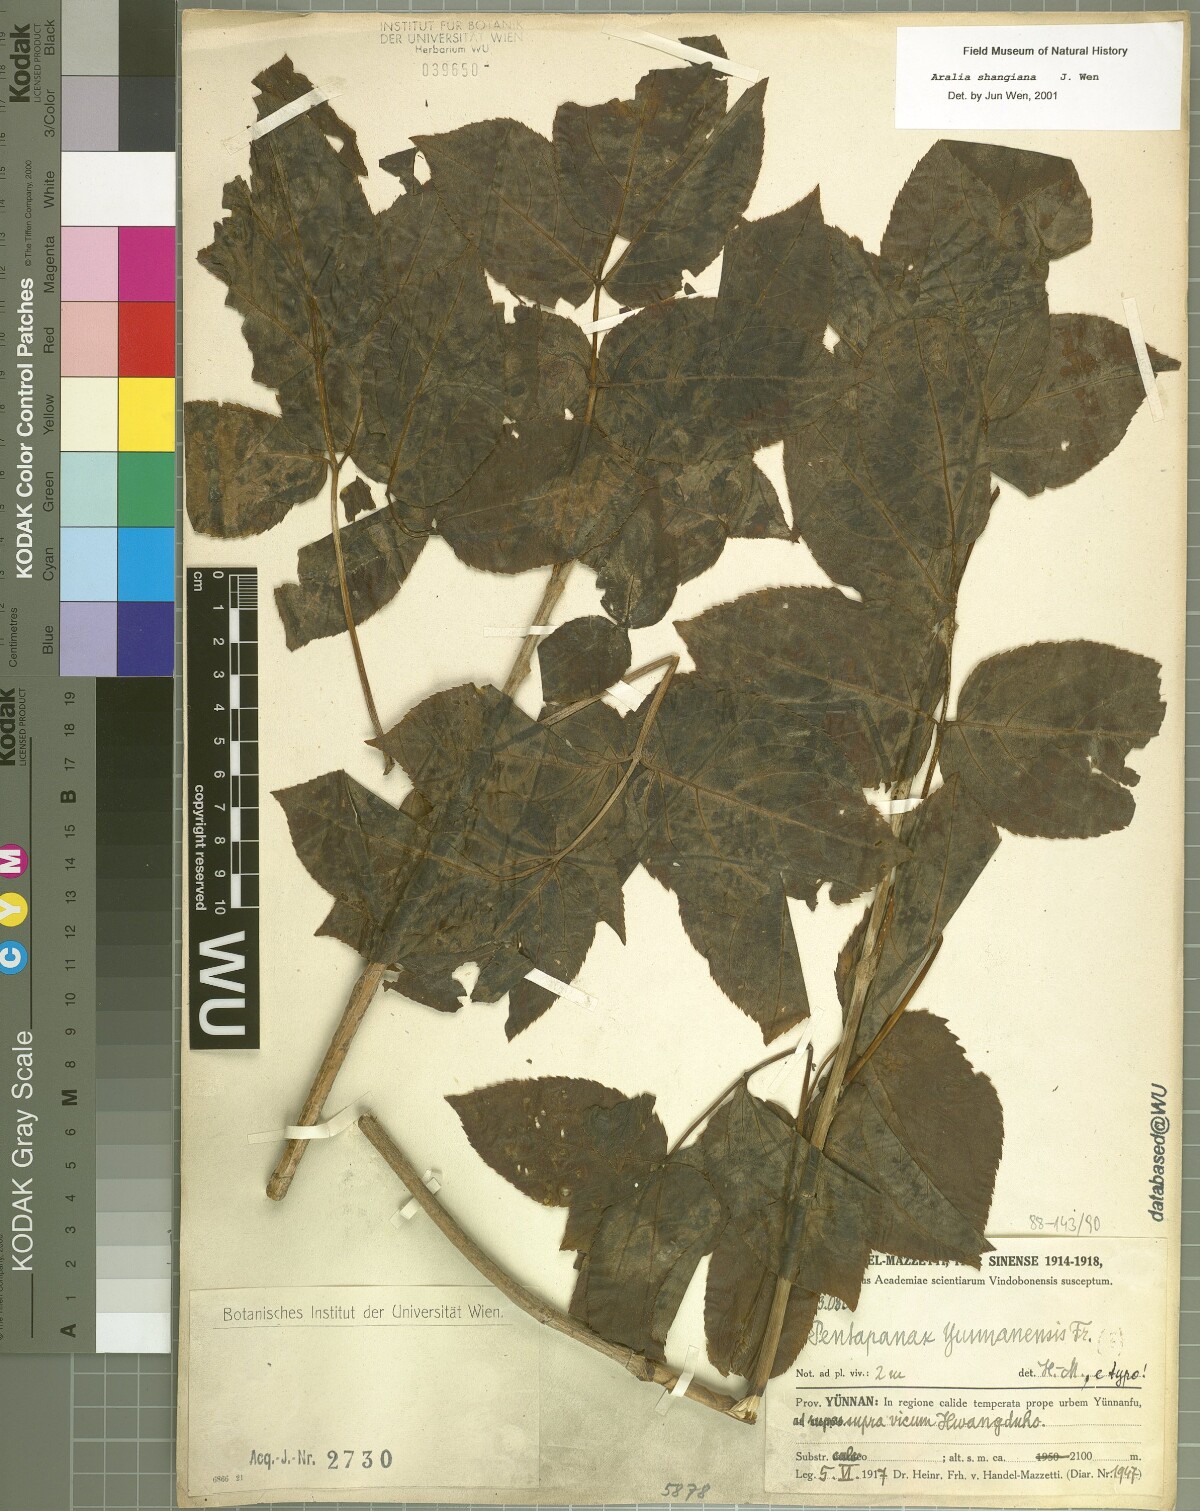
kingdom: Plantae
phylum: Tracheophyta
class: Magnoliopsida
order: Apiales
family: Araliaceae
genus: Aralia
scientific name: Aralia delavayi
